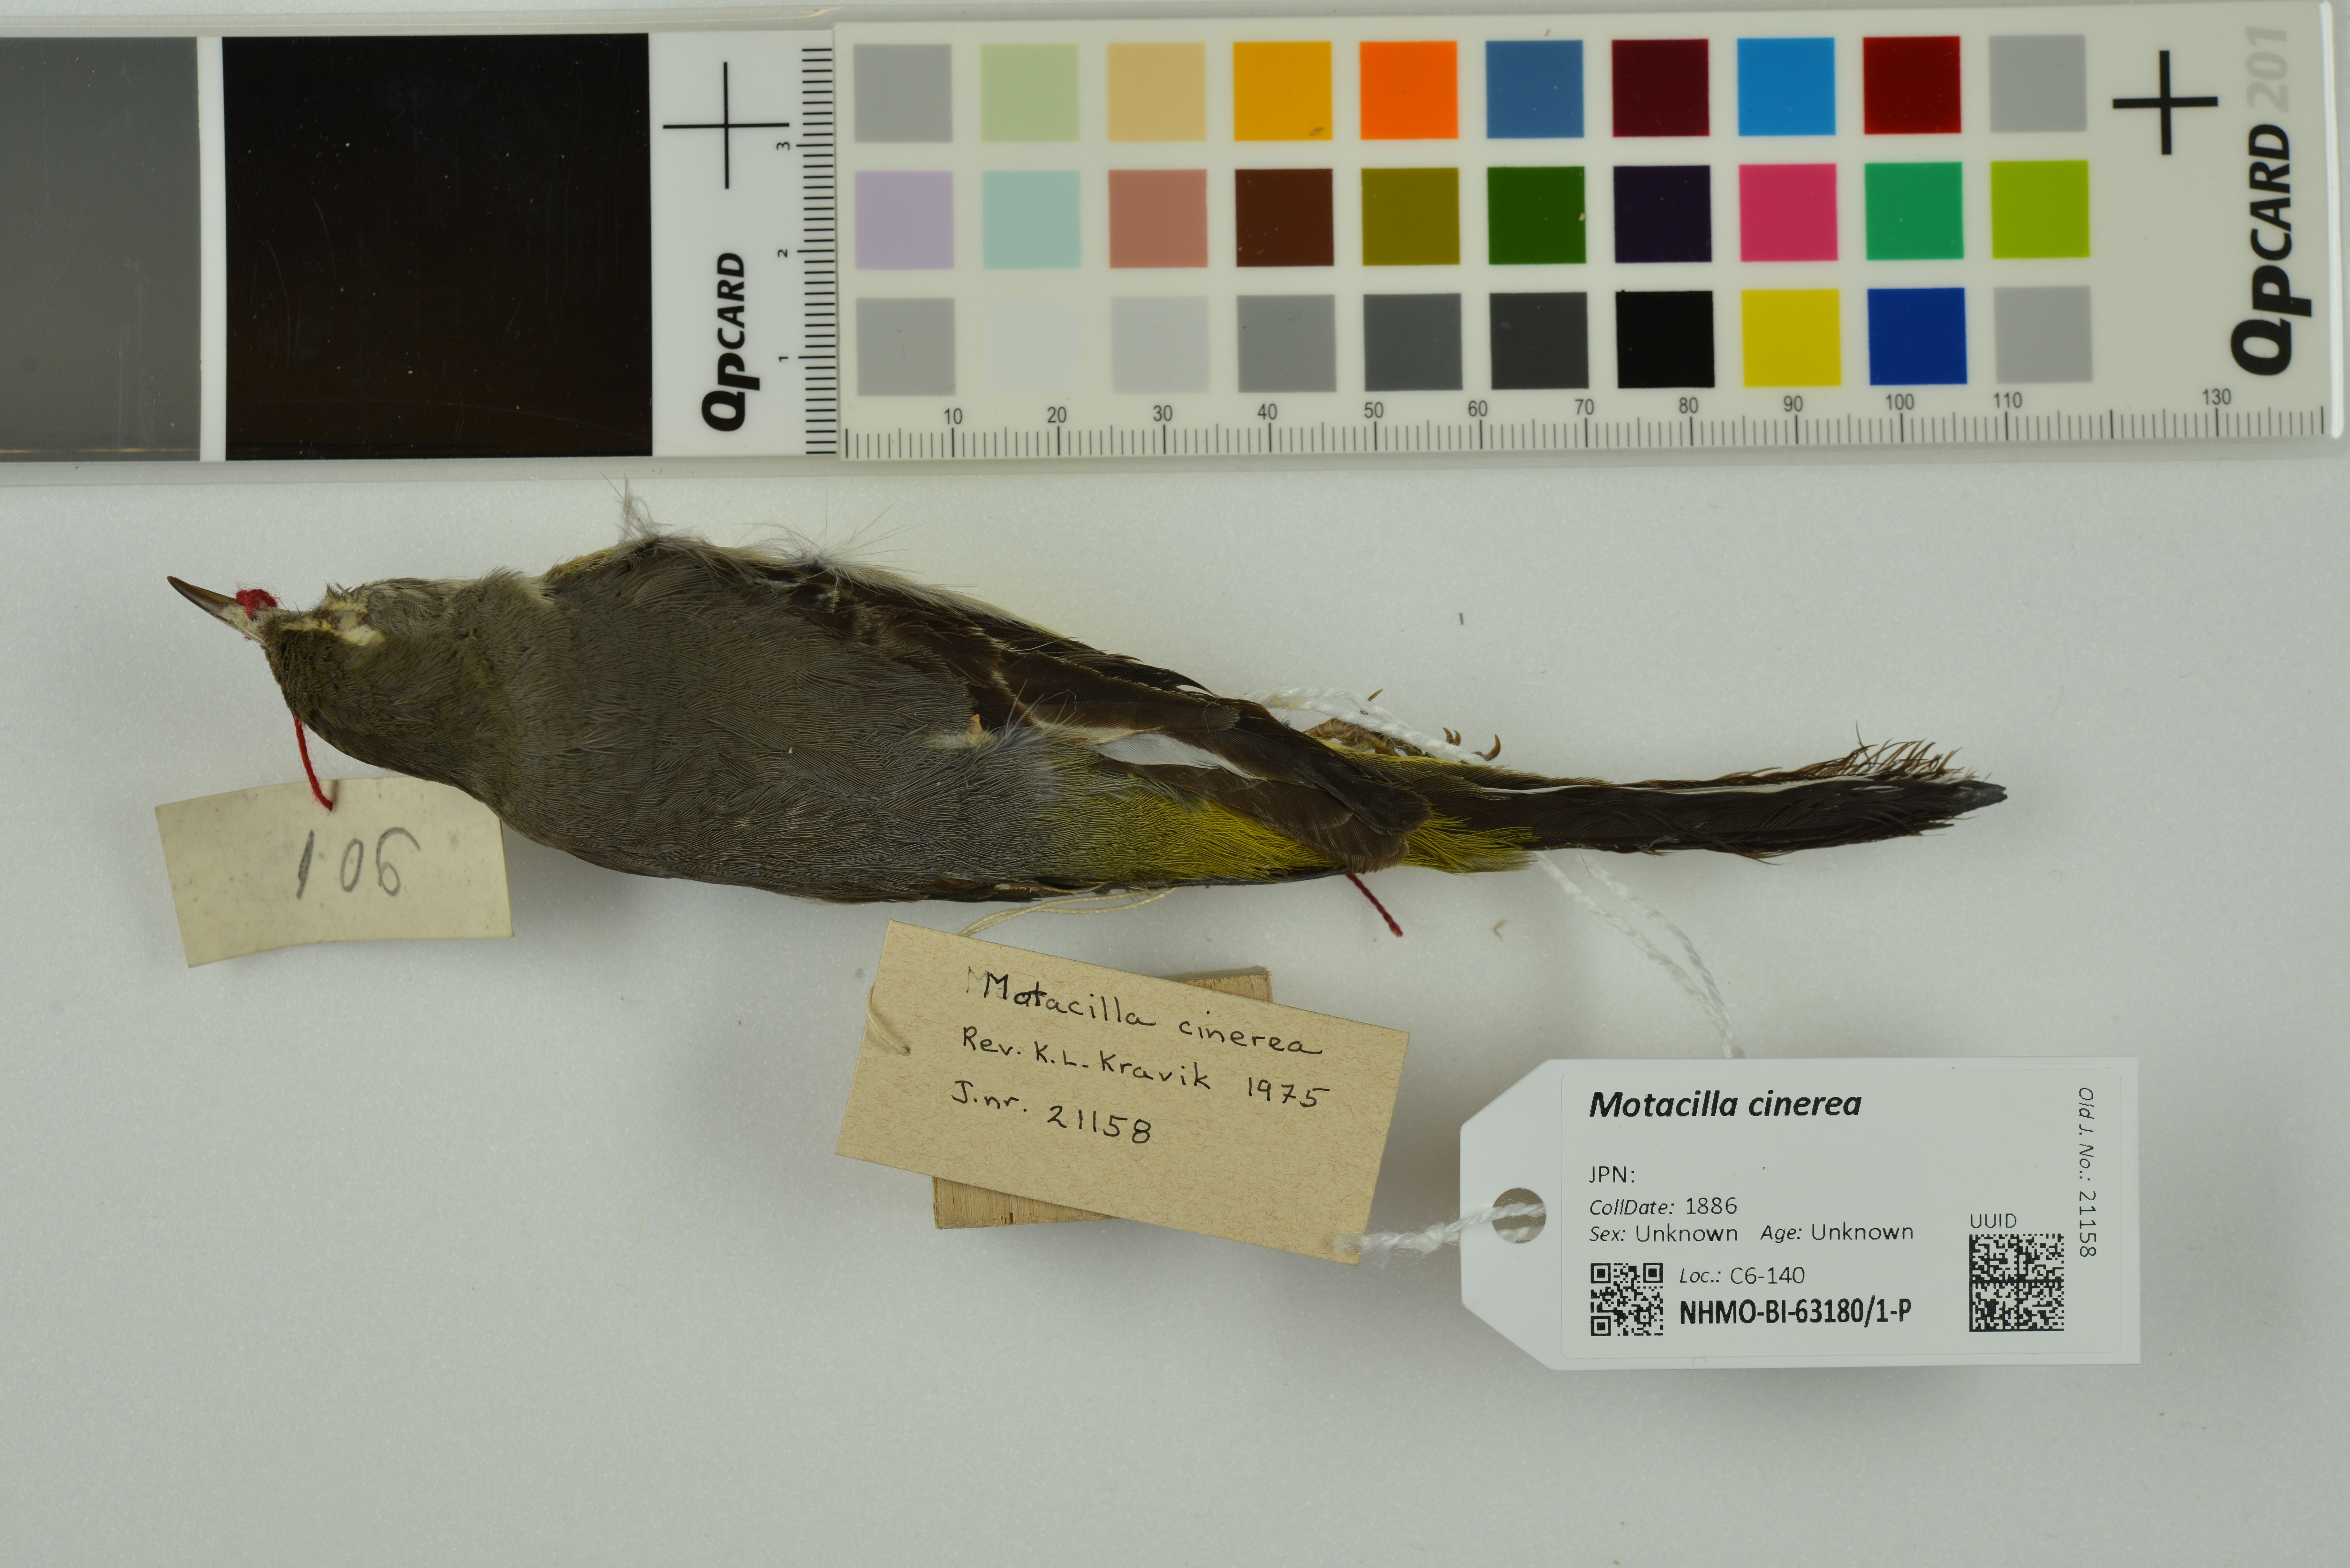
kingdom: Animalia
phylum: Chordata
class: Aves
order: Passeriformes
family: Motacillidae
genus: Motacilla
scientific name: Motacilla cinerea
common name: Grey wagtail
